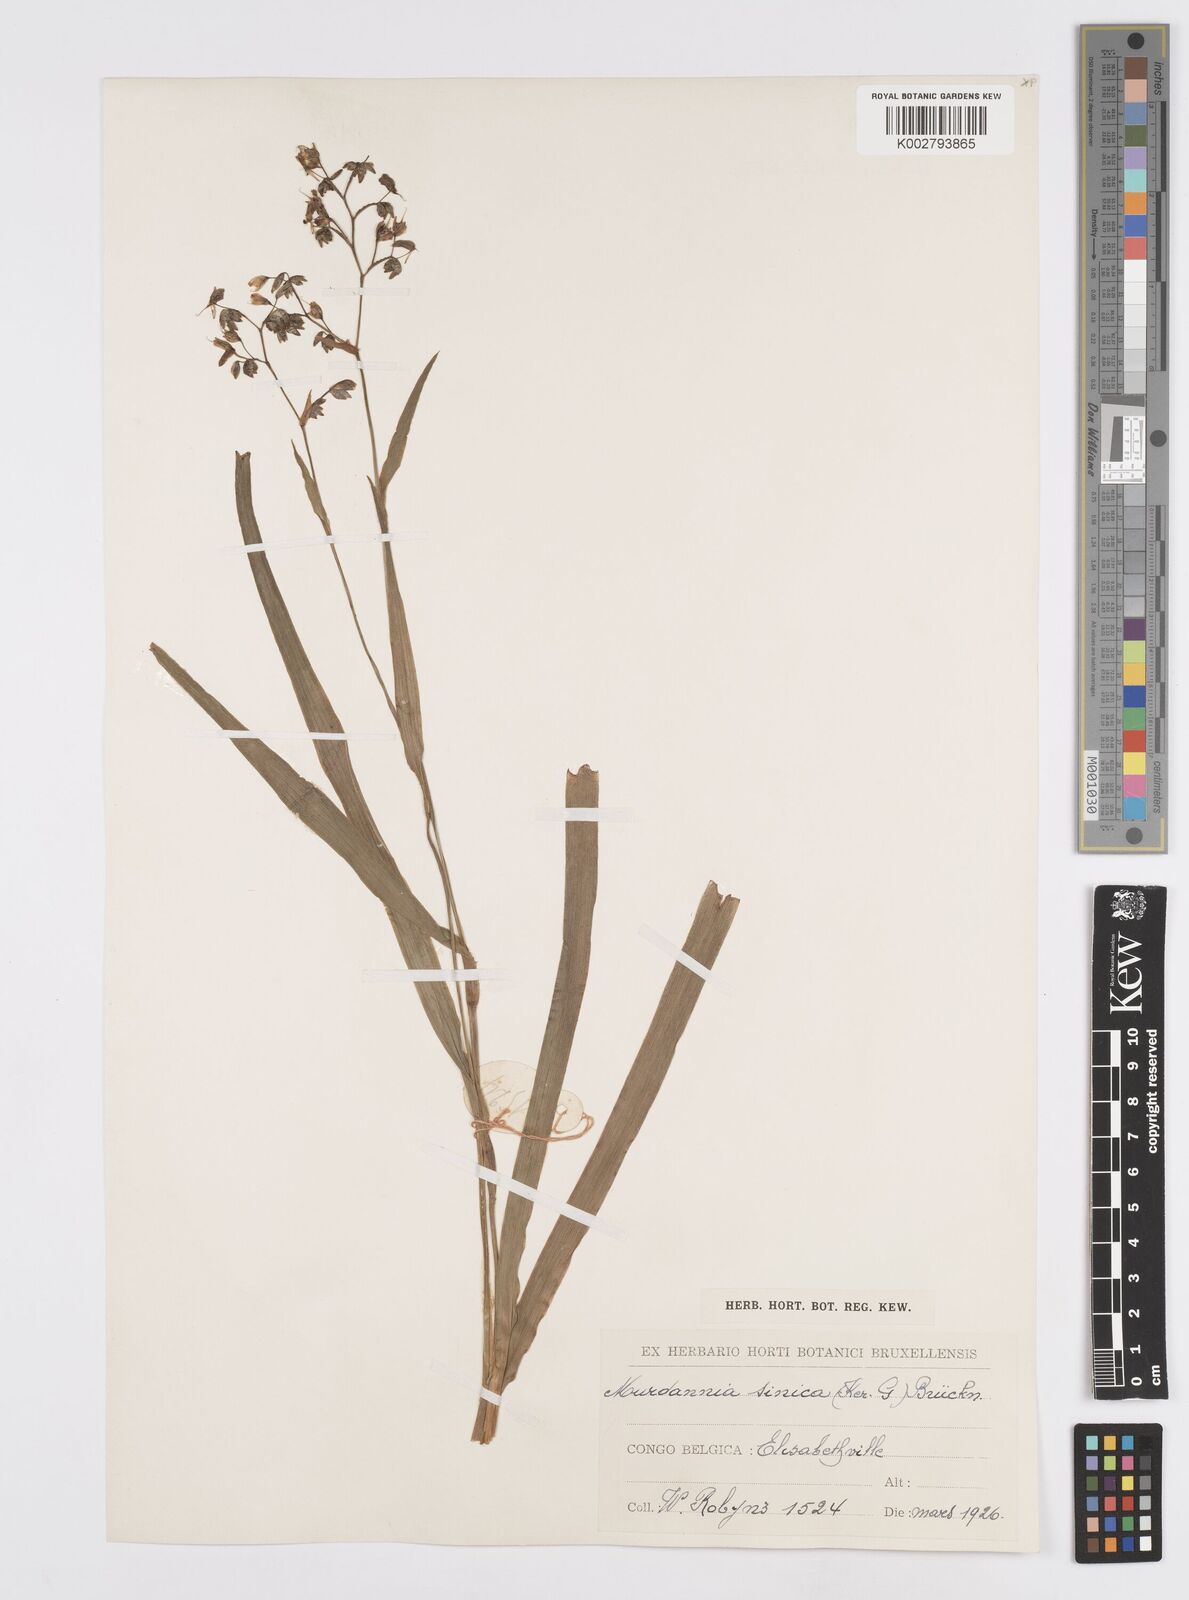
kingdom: Plantae
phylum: Tracheophyta
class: Liliopsida
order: Commelinales
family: Commelinaceae
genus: Murdannia
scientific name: Murdannia simplex
